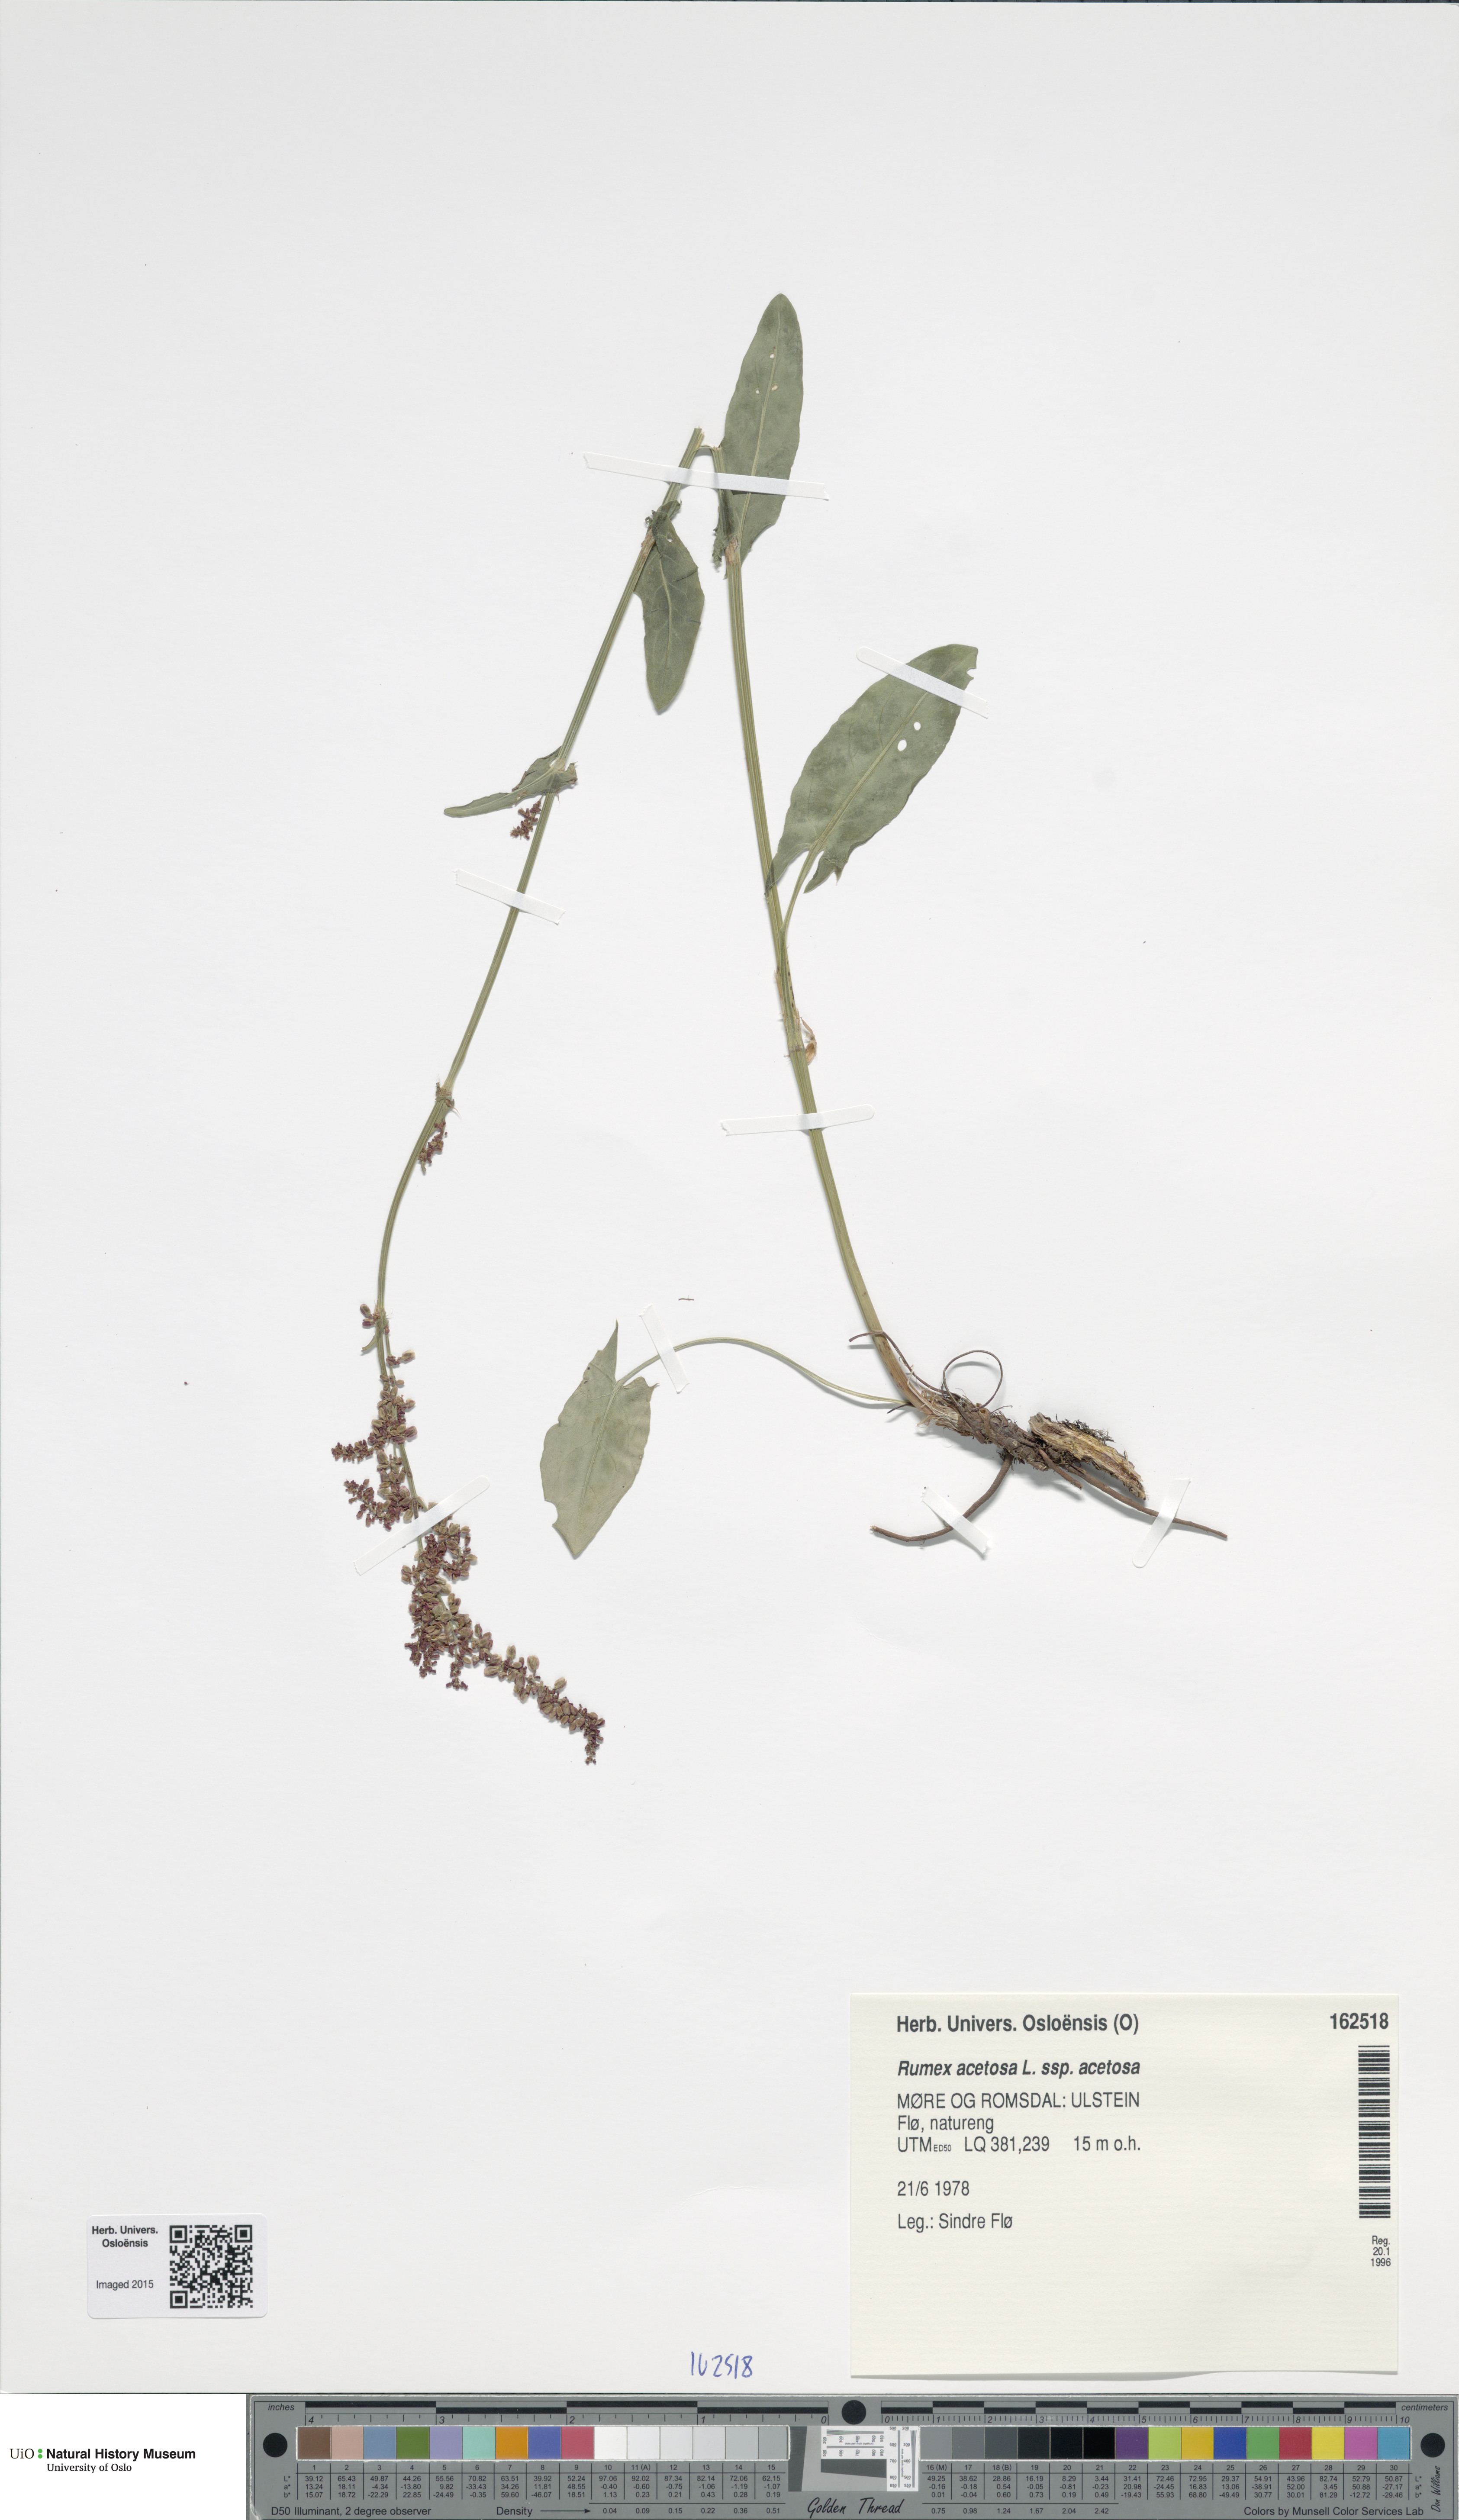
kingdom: Plantae
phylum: Tracheophyta
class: Magnoliopsida
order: Caryophyllales
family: Polygonaceae
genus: Rumex
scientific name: Rumex acetosa
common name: Garden sorrel
